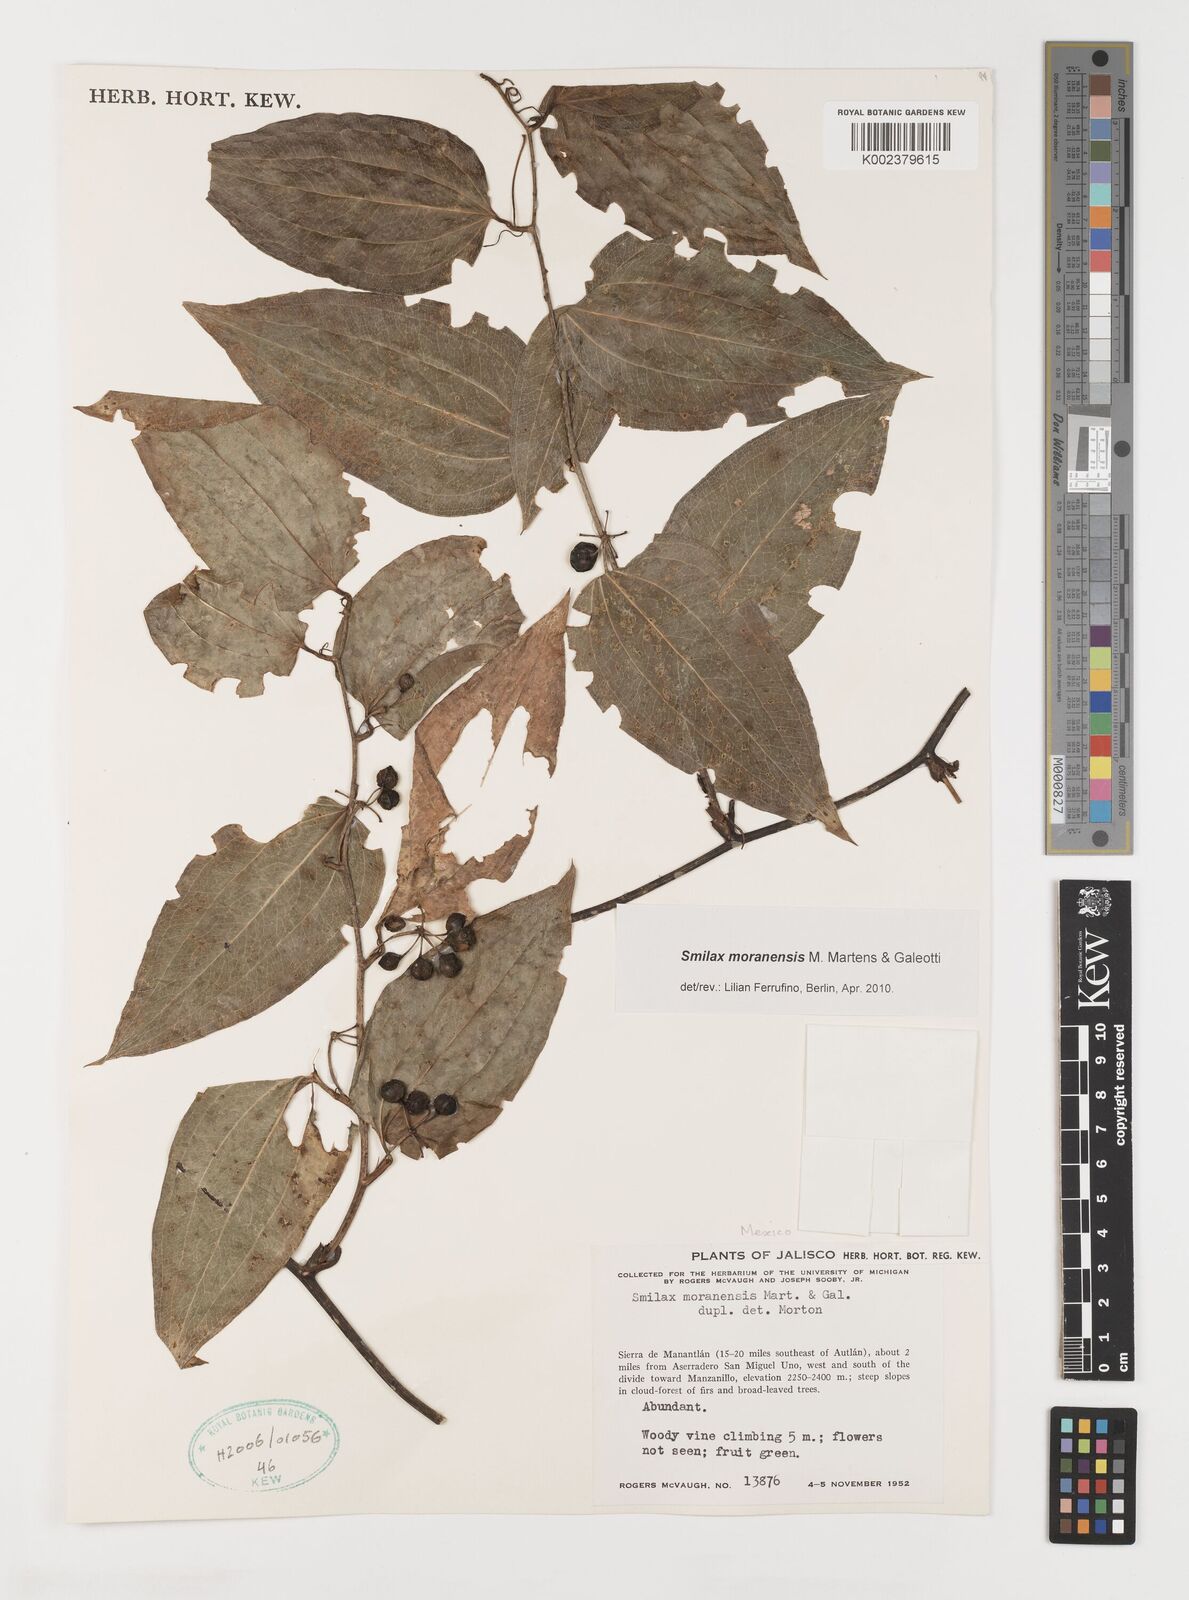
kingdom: Plantae
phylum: Tracheophyta
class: Liliopsida
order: Liliales
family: Smilacaceae
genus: Smilax
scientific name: Smilax moranensis
